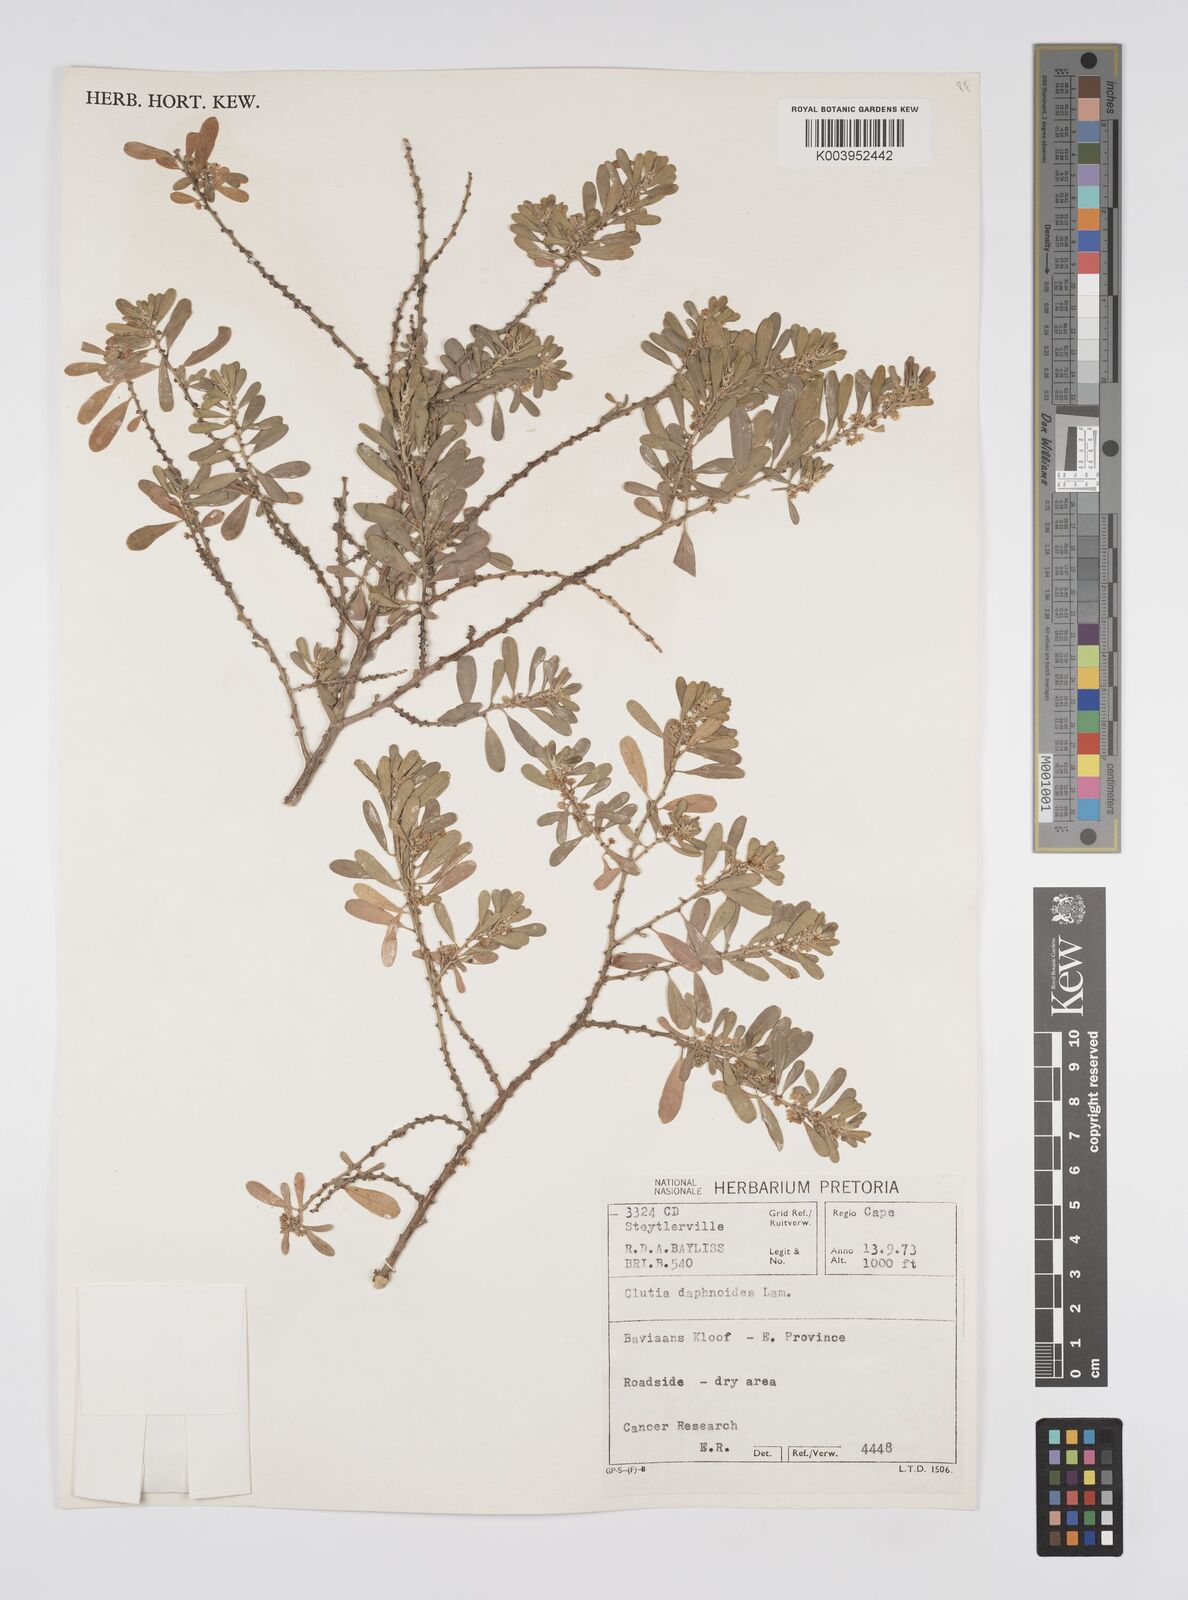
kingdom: Plantae
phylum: Tracheophyta
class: Magnoliopsida
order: Malpighiales
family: Peraceae
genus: Clutia
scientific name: Clutia daphnoides
